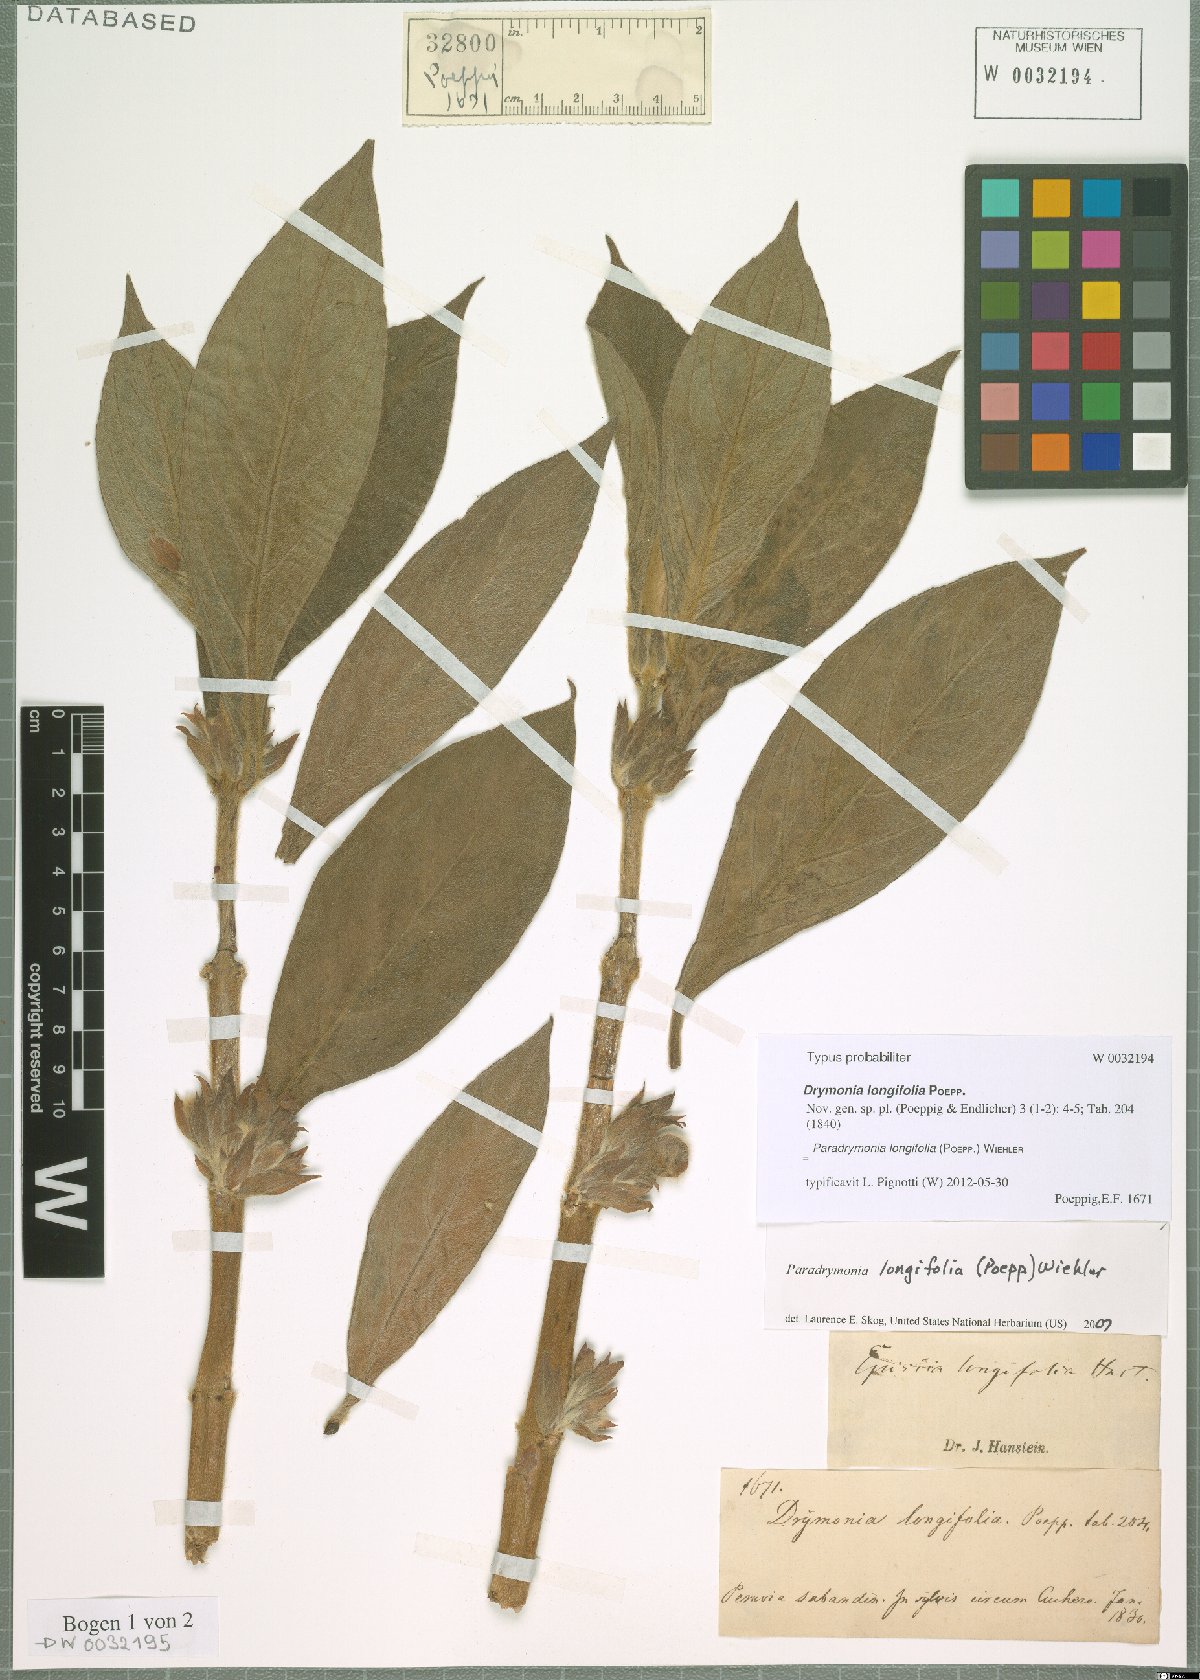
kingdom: Plantae
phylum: Tracheophyta
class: Magnoliopsida
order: Lamiales
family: Gesneriaceae
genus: Paradrymonia
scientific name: Paradrymonia longifolia
